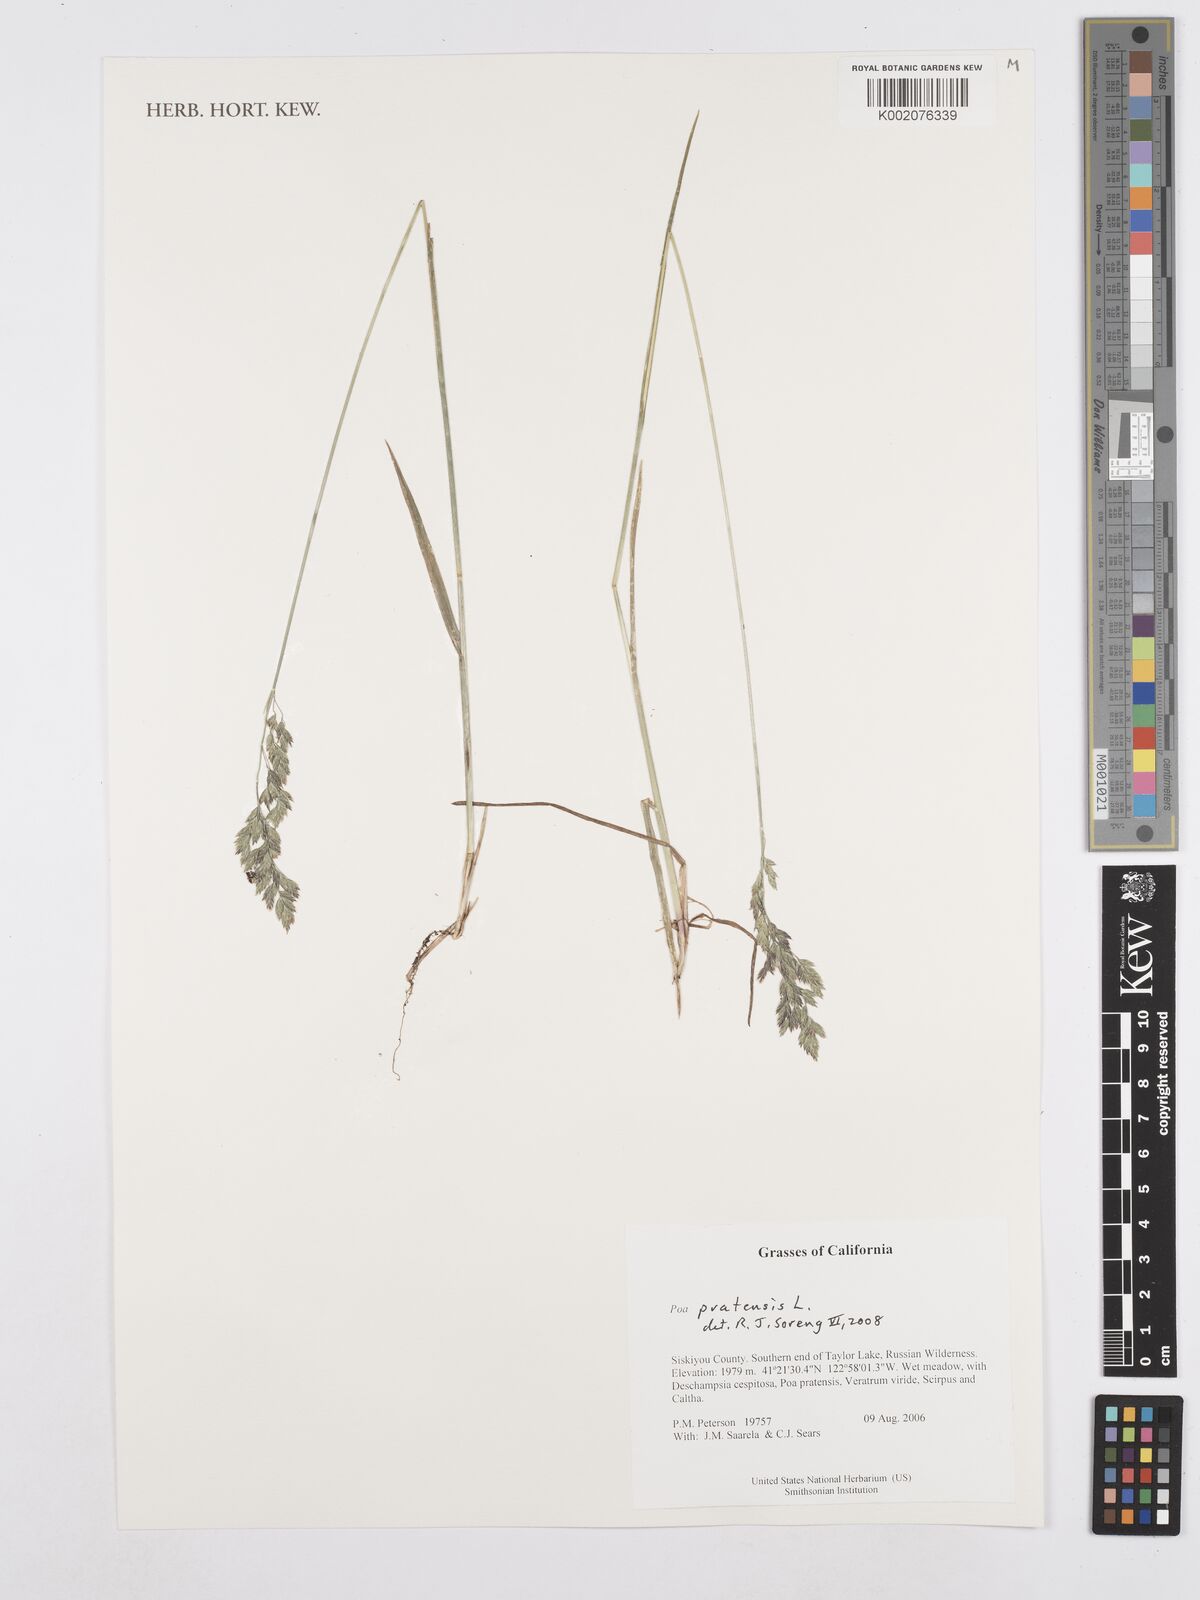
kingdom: Plantae
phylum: Tracheophyta
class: Liliopsida
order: Poales
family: Poaceae
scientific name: Poaceae
